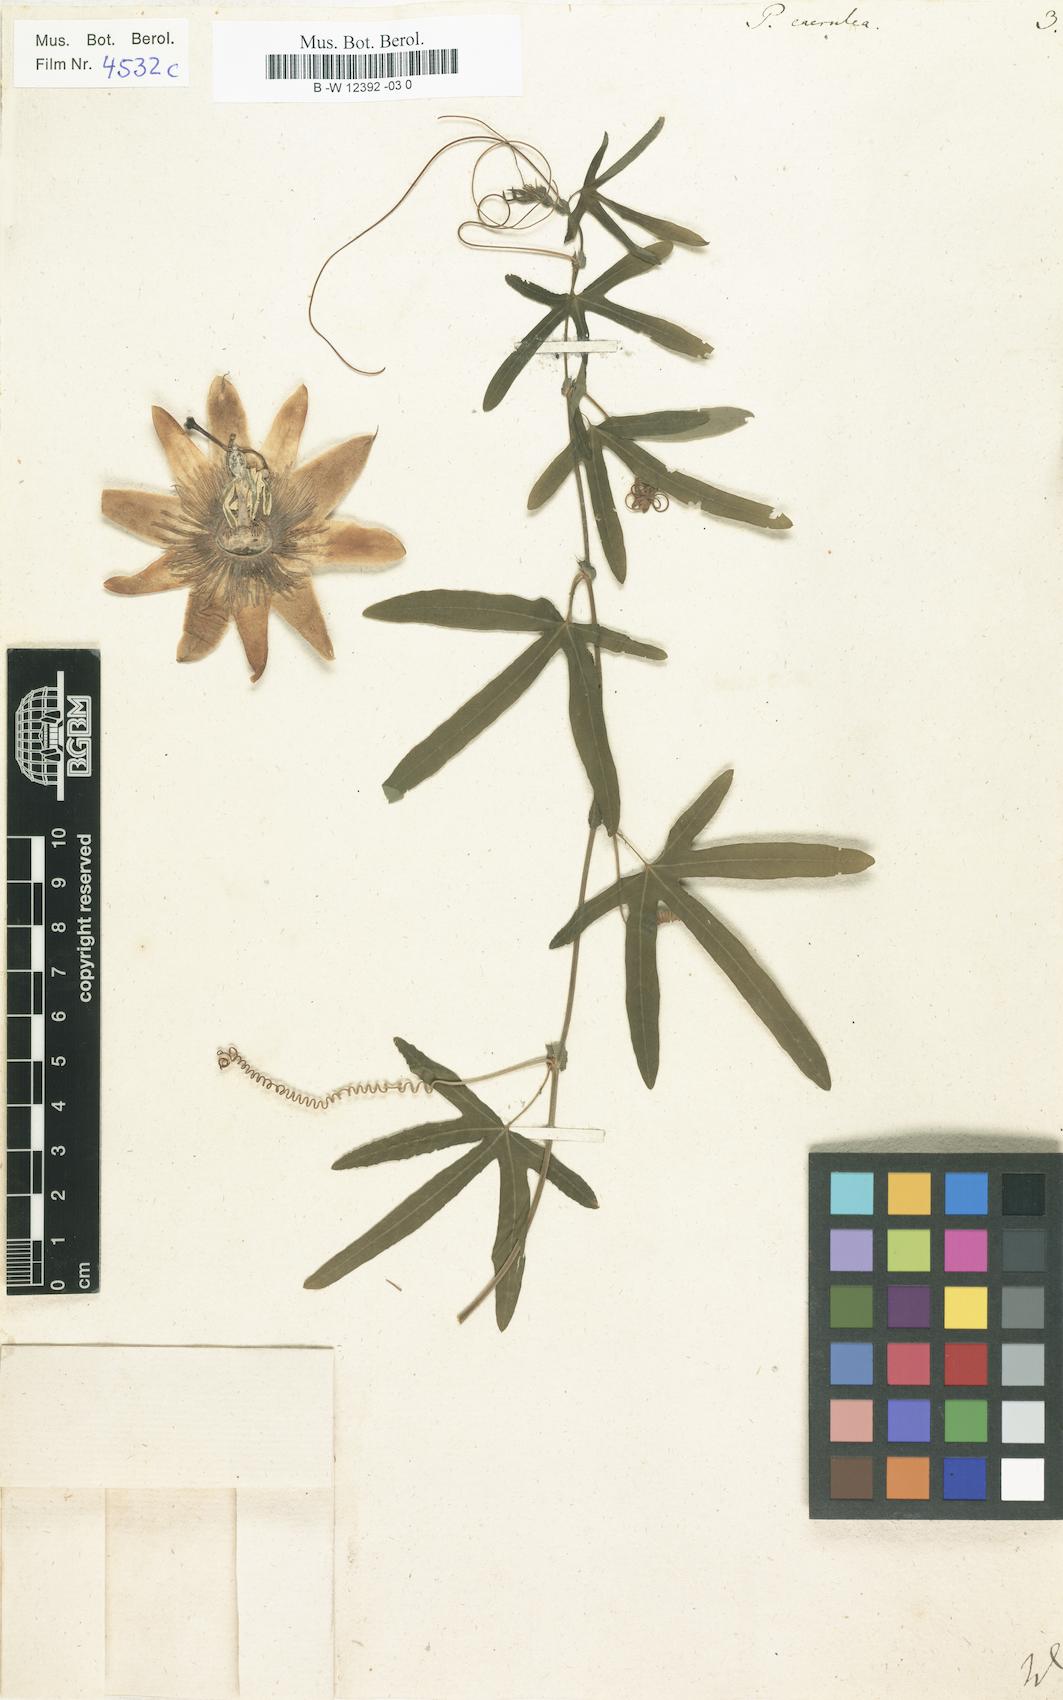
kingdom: Plantae
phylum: Tracheophyta
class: Magnoliopsida
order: Malpighiales
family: Passifloraceae
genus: Passiflora
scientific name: Passiflora caerulea
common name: Blue passionflower
